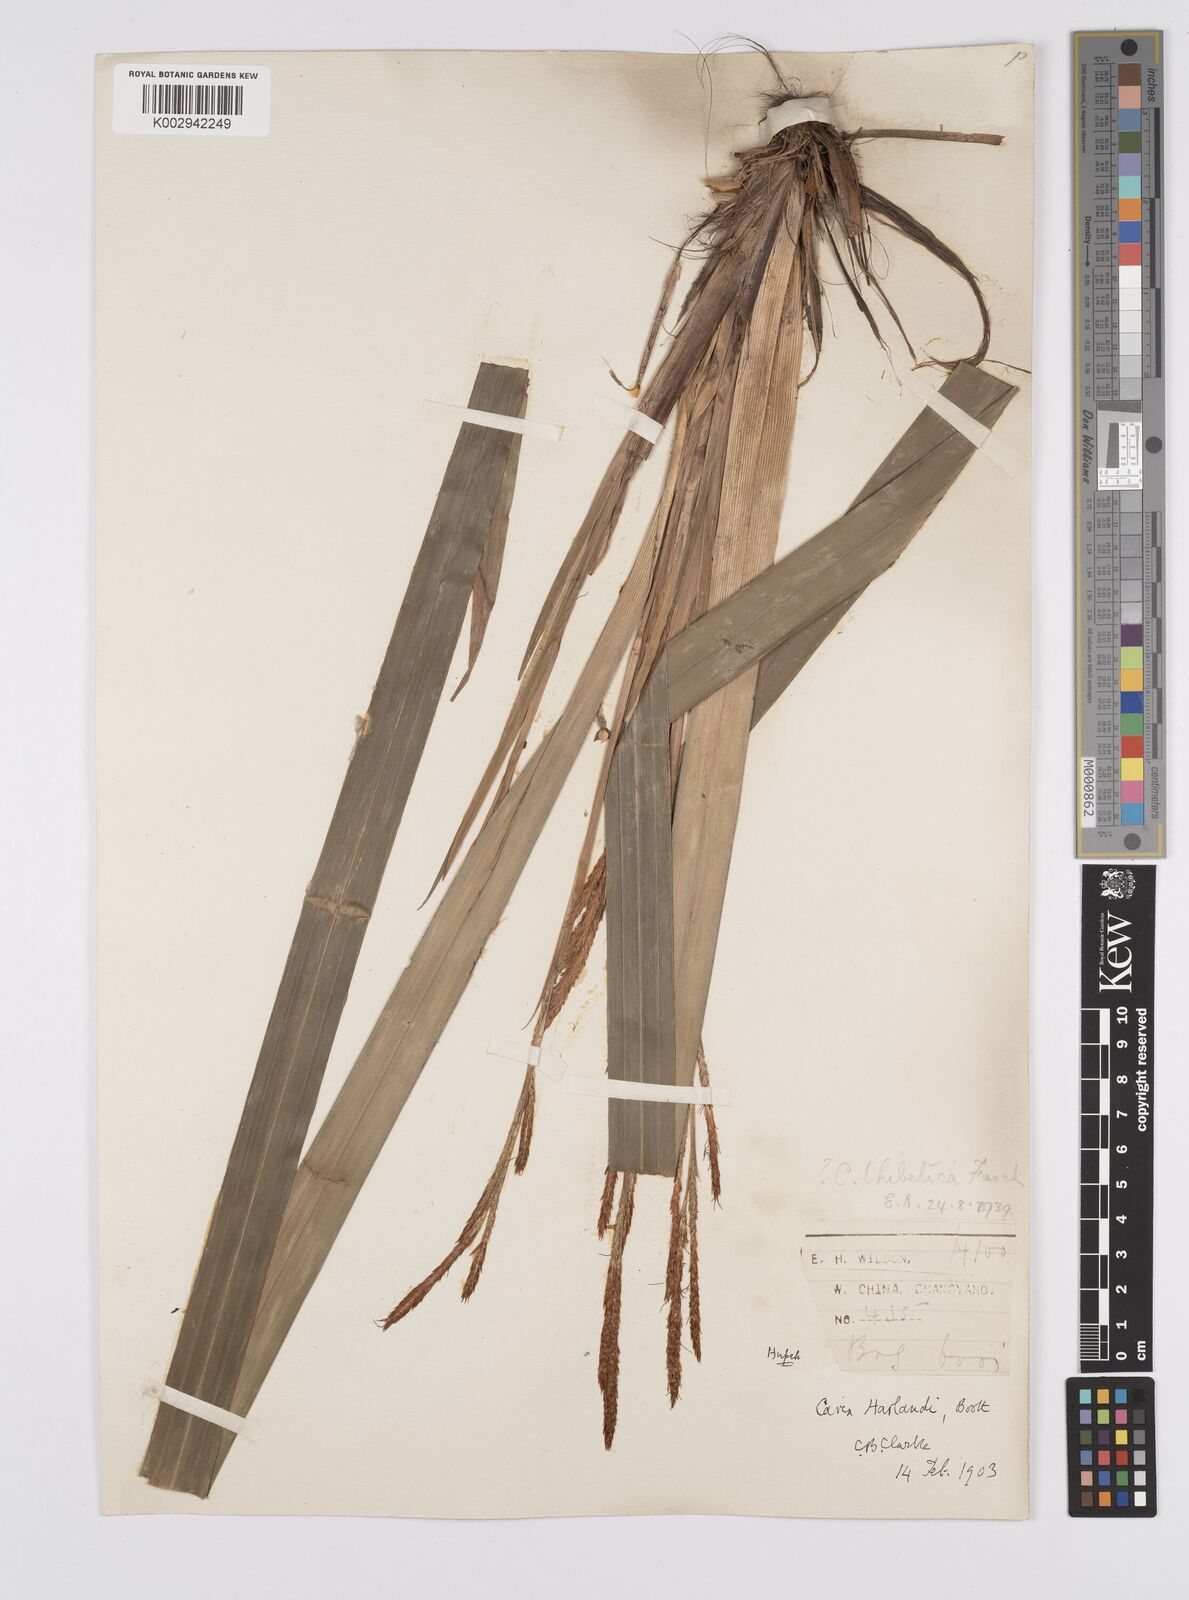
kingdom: Plantae
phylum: Tracheophyta
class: Liliopsida
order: Poales
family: Cyperaceae
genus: Carex
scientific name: Carex thibetica
